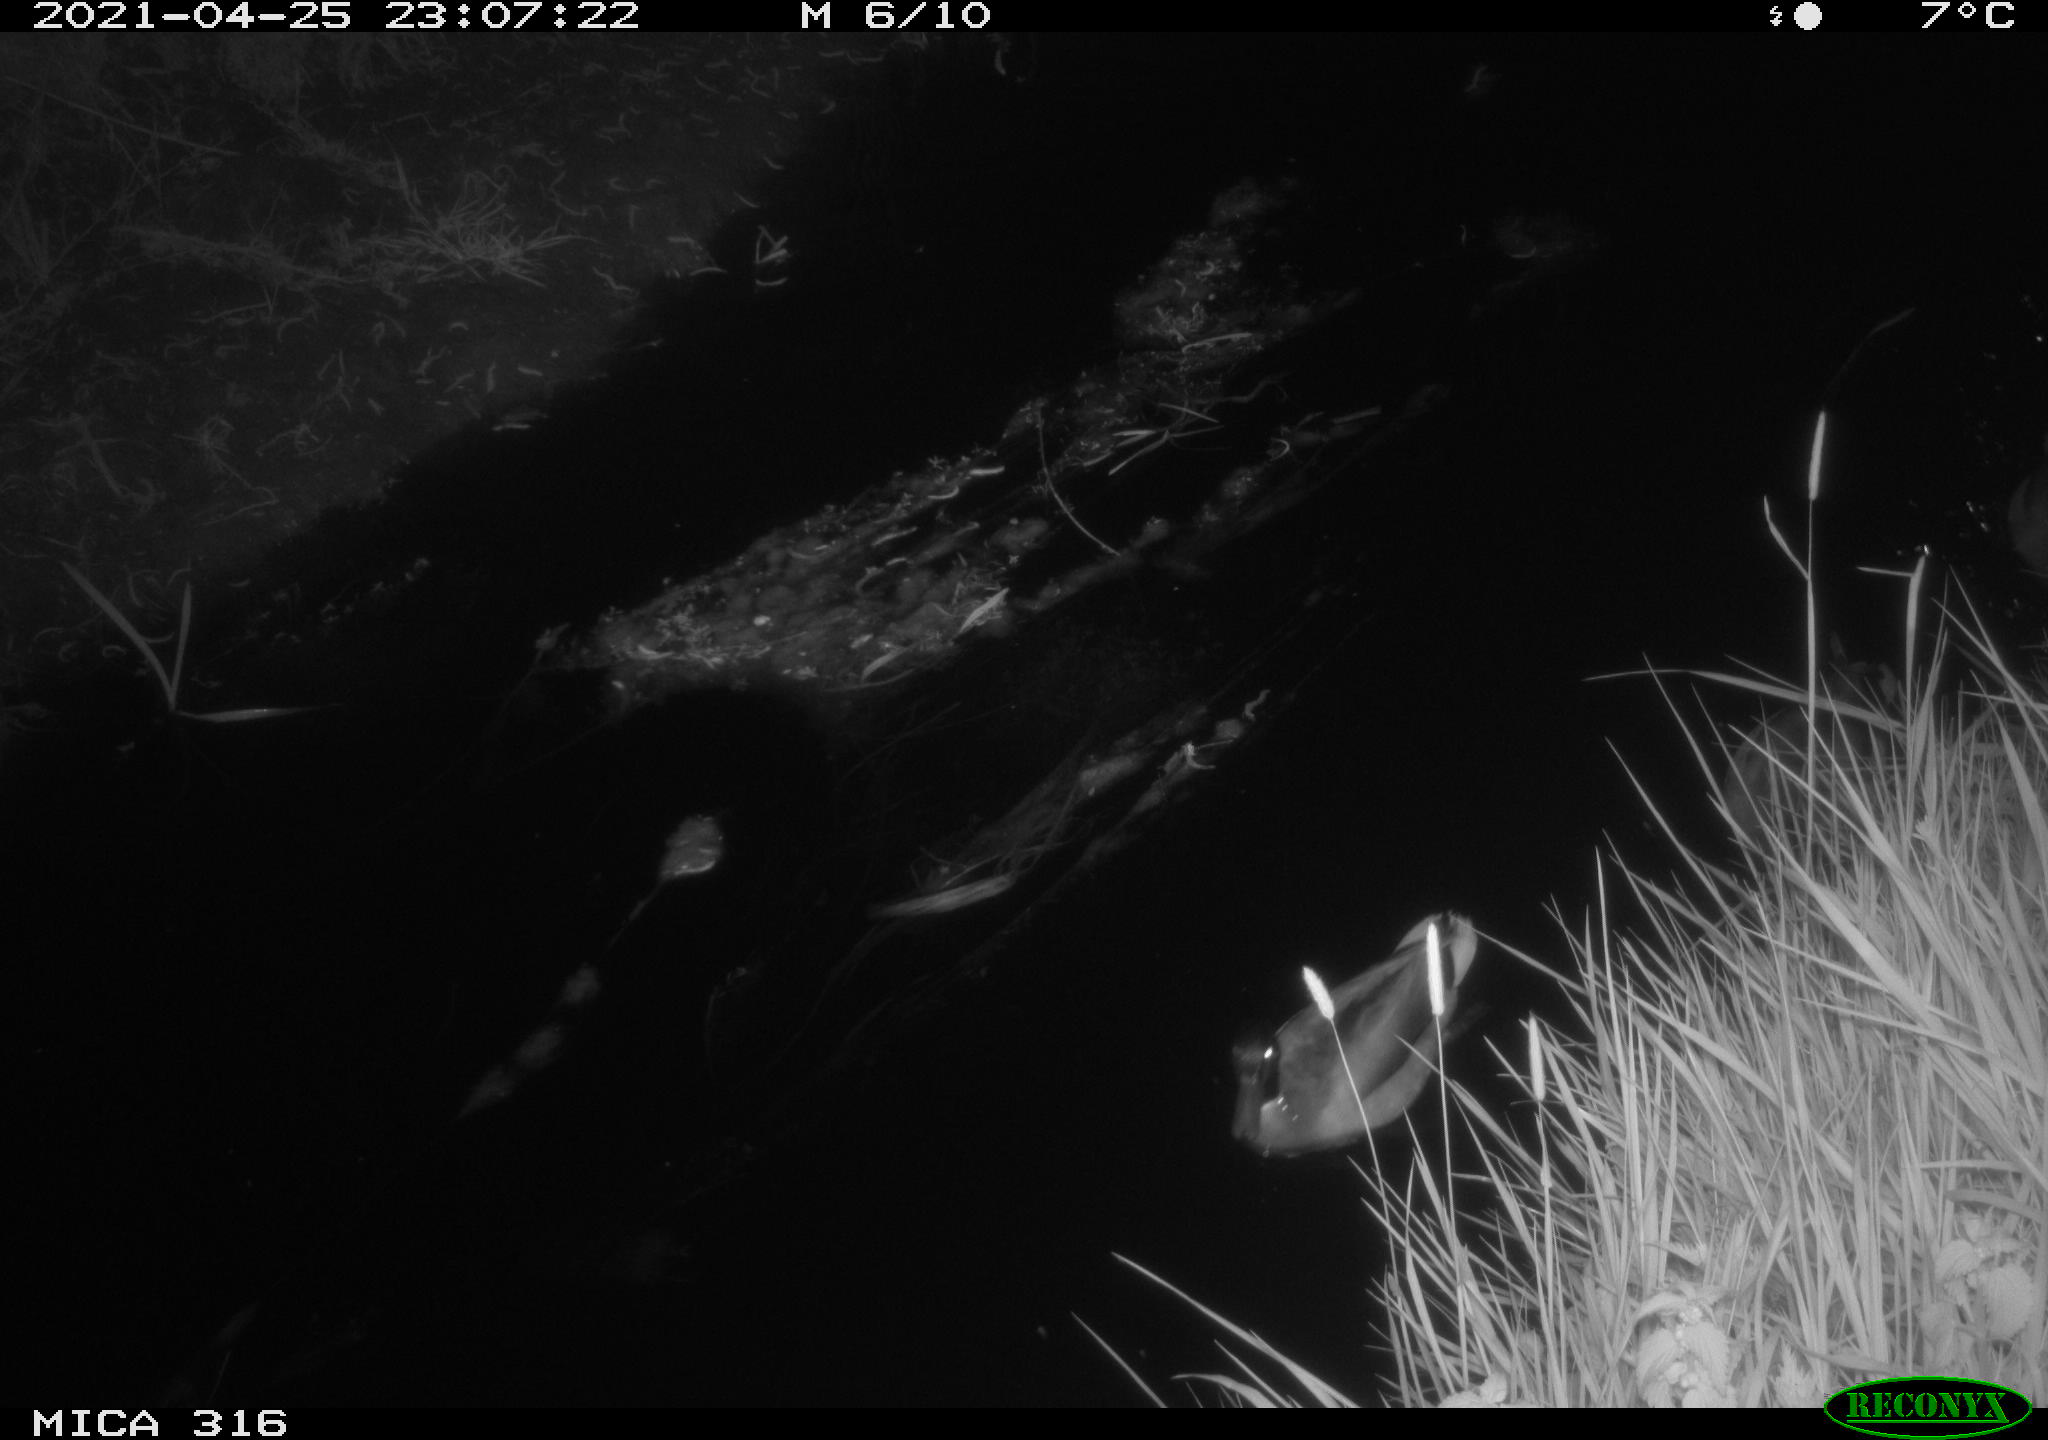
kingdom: Animalia
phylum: Chordata
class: Aves
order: Gruiformes
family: Rallidae
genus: Gallinula
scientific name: Gallinula chloropus
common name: Common moorhen
